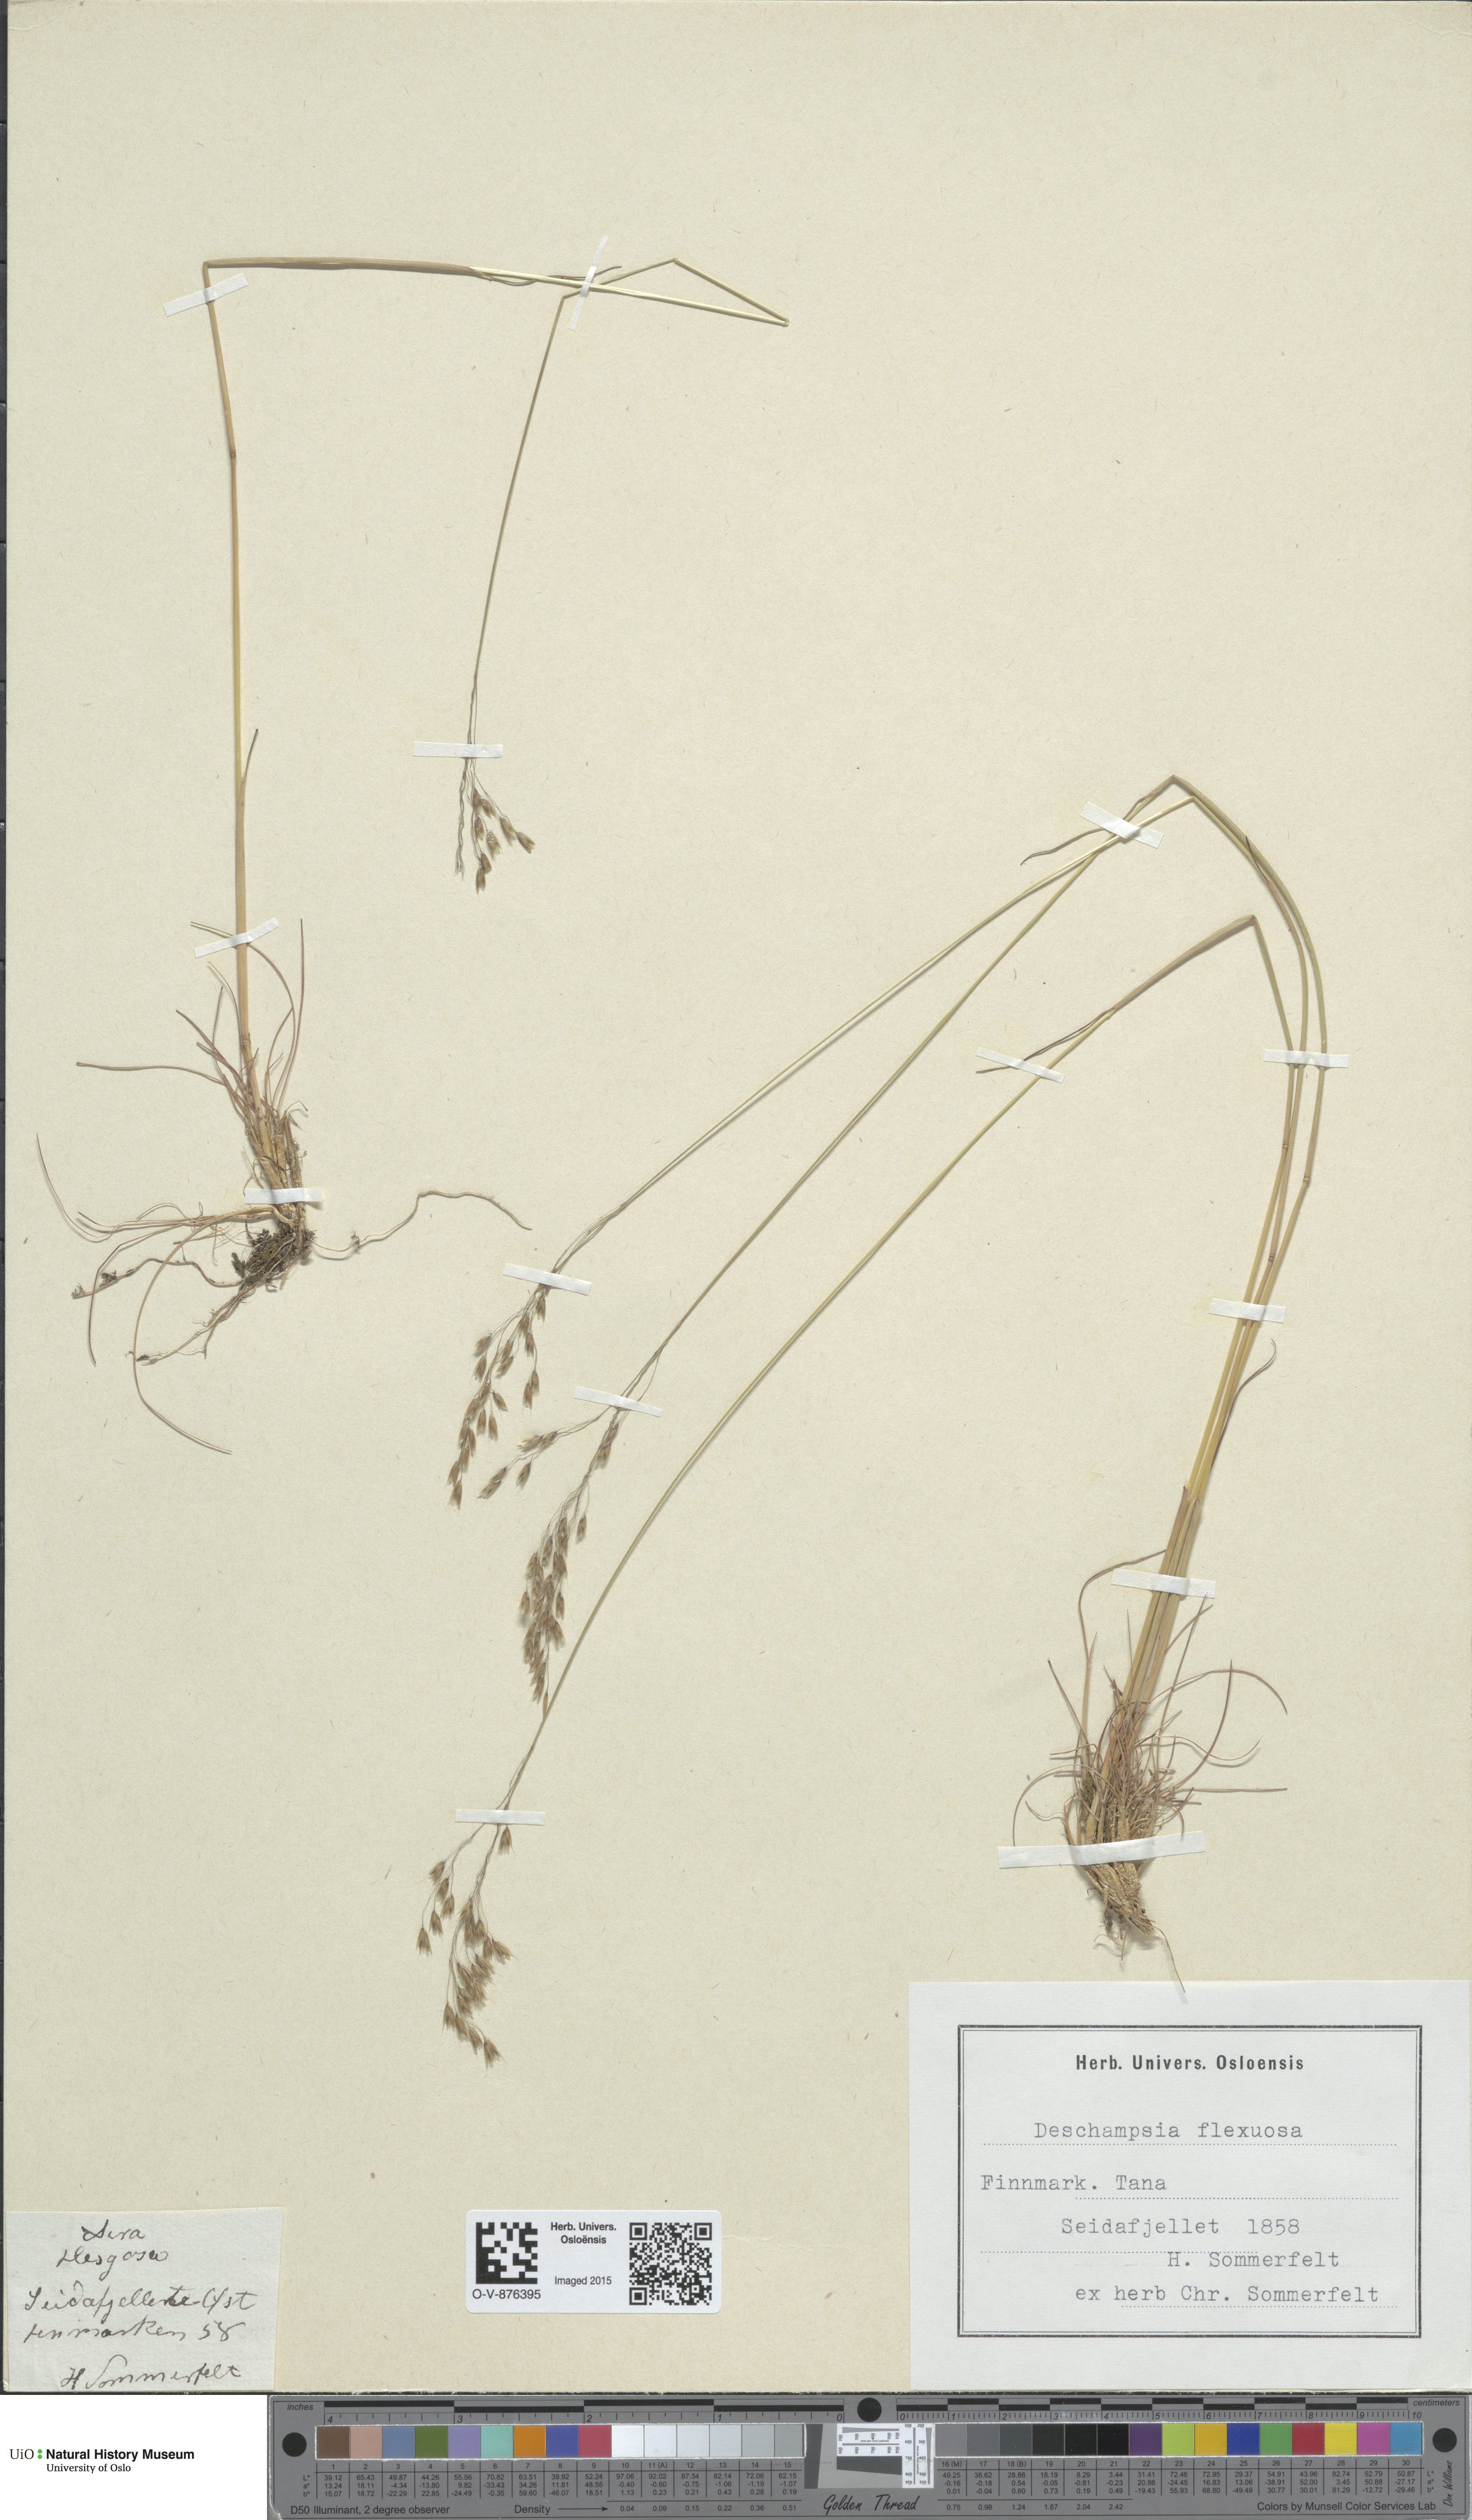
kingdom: Plantae
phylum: Tracheophyta
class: Liliopsida
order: Poales
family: Poaceae
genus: Avenella
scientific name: Avenella flexuosa
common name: Wavy hairgrass
